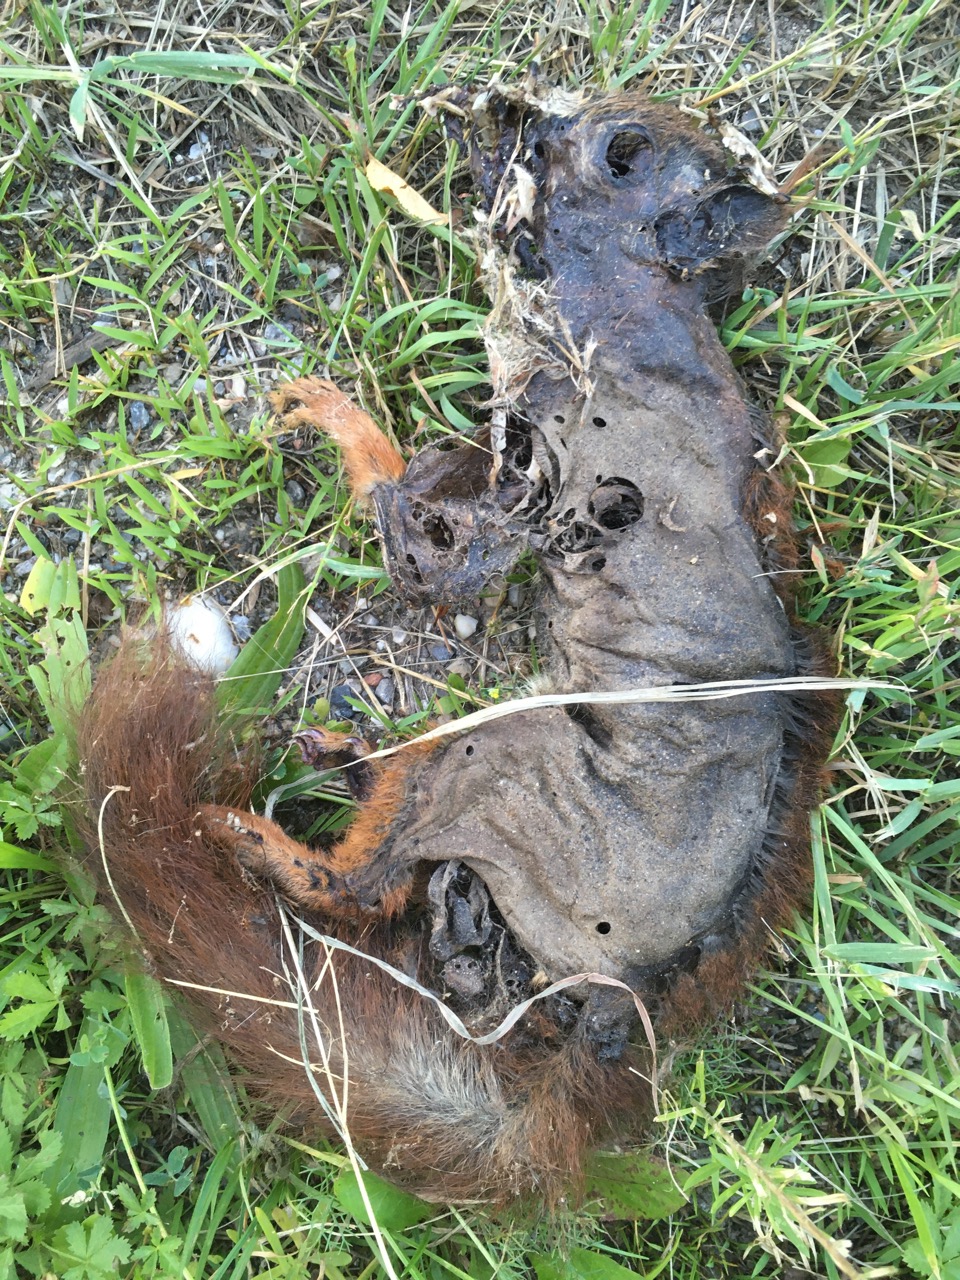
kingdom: Animalia
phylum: Chordata
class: Mammalia
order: Rodentia
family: Sciuridae
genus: Sciurus
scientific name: Sciurus vulgaris
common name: Eurasian red squirrel
